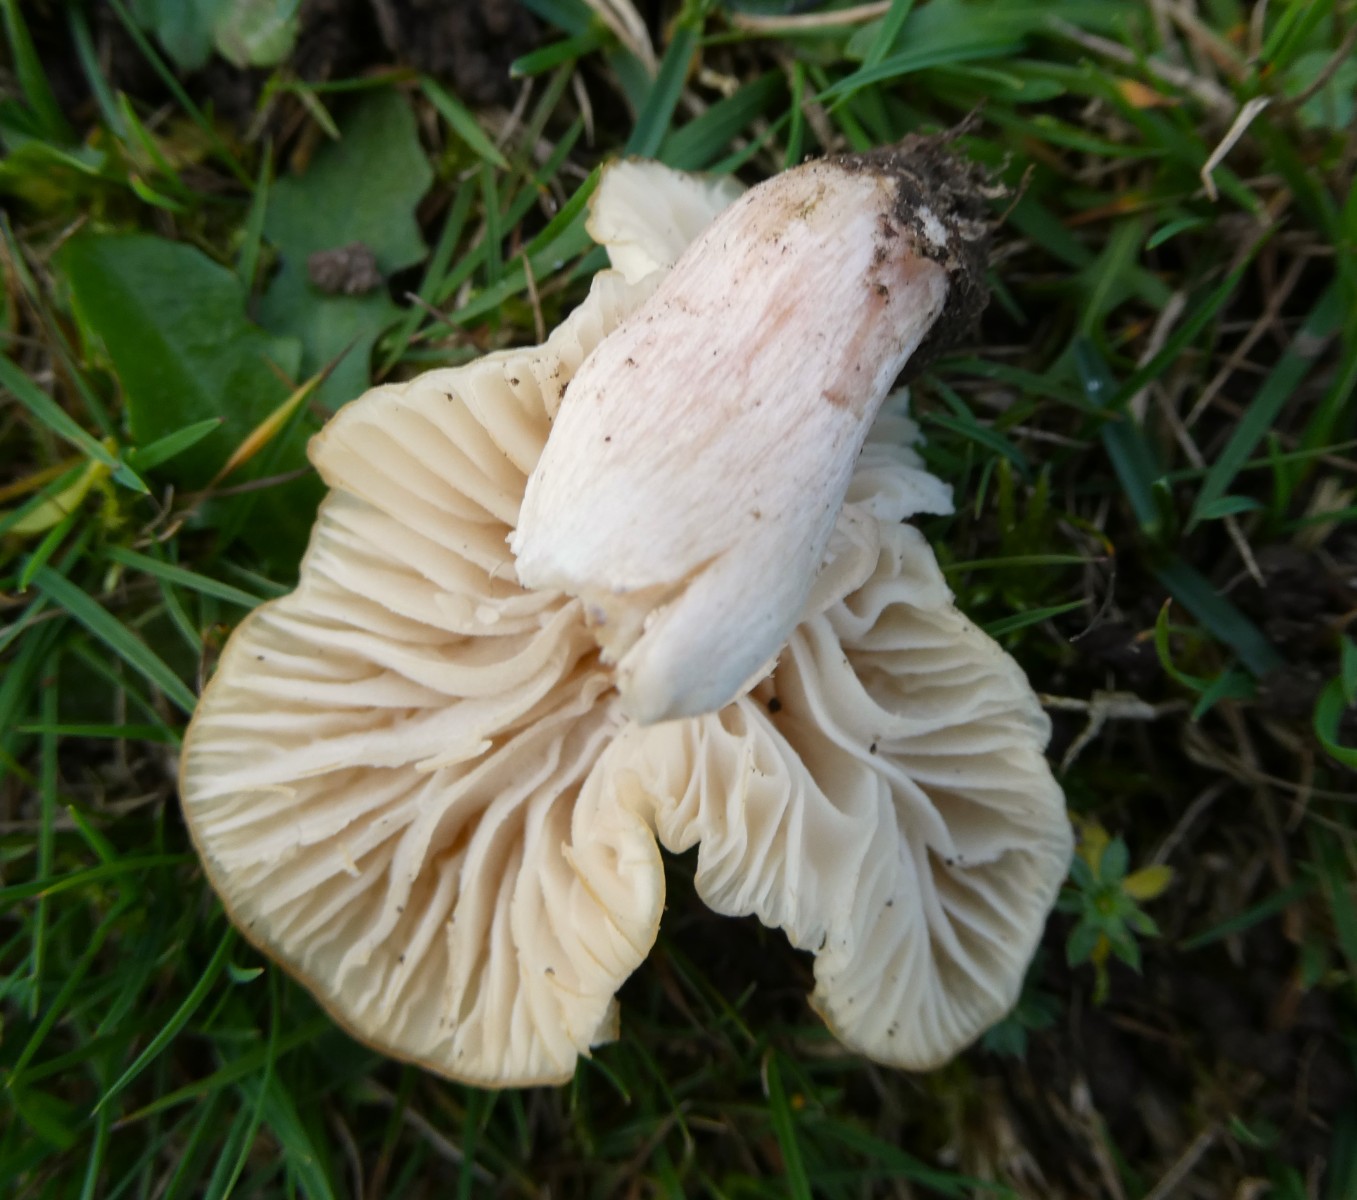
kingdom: Fungi
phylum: Basidiomycota
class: Agaricomycetes
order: Agaricales
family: Hygrophoraceae
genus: Cuphophyllus
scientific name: Cuphophyllus virgineus
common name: snehvid vokshat
